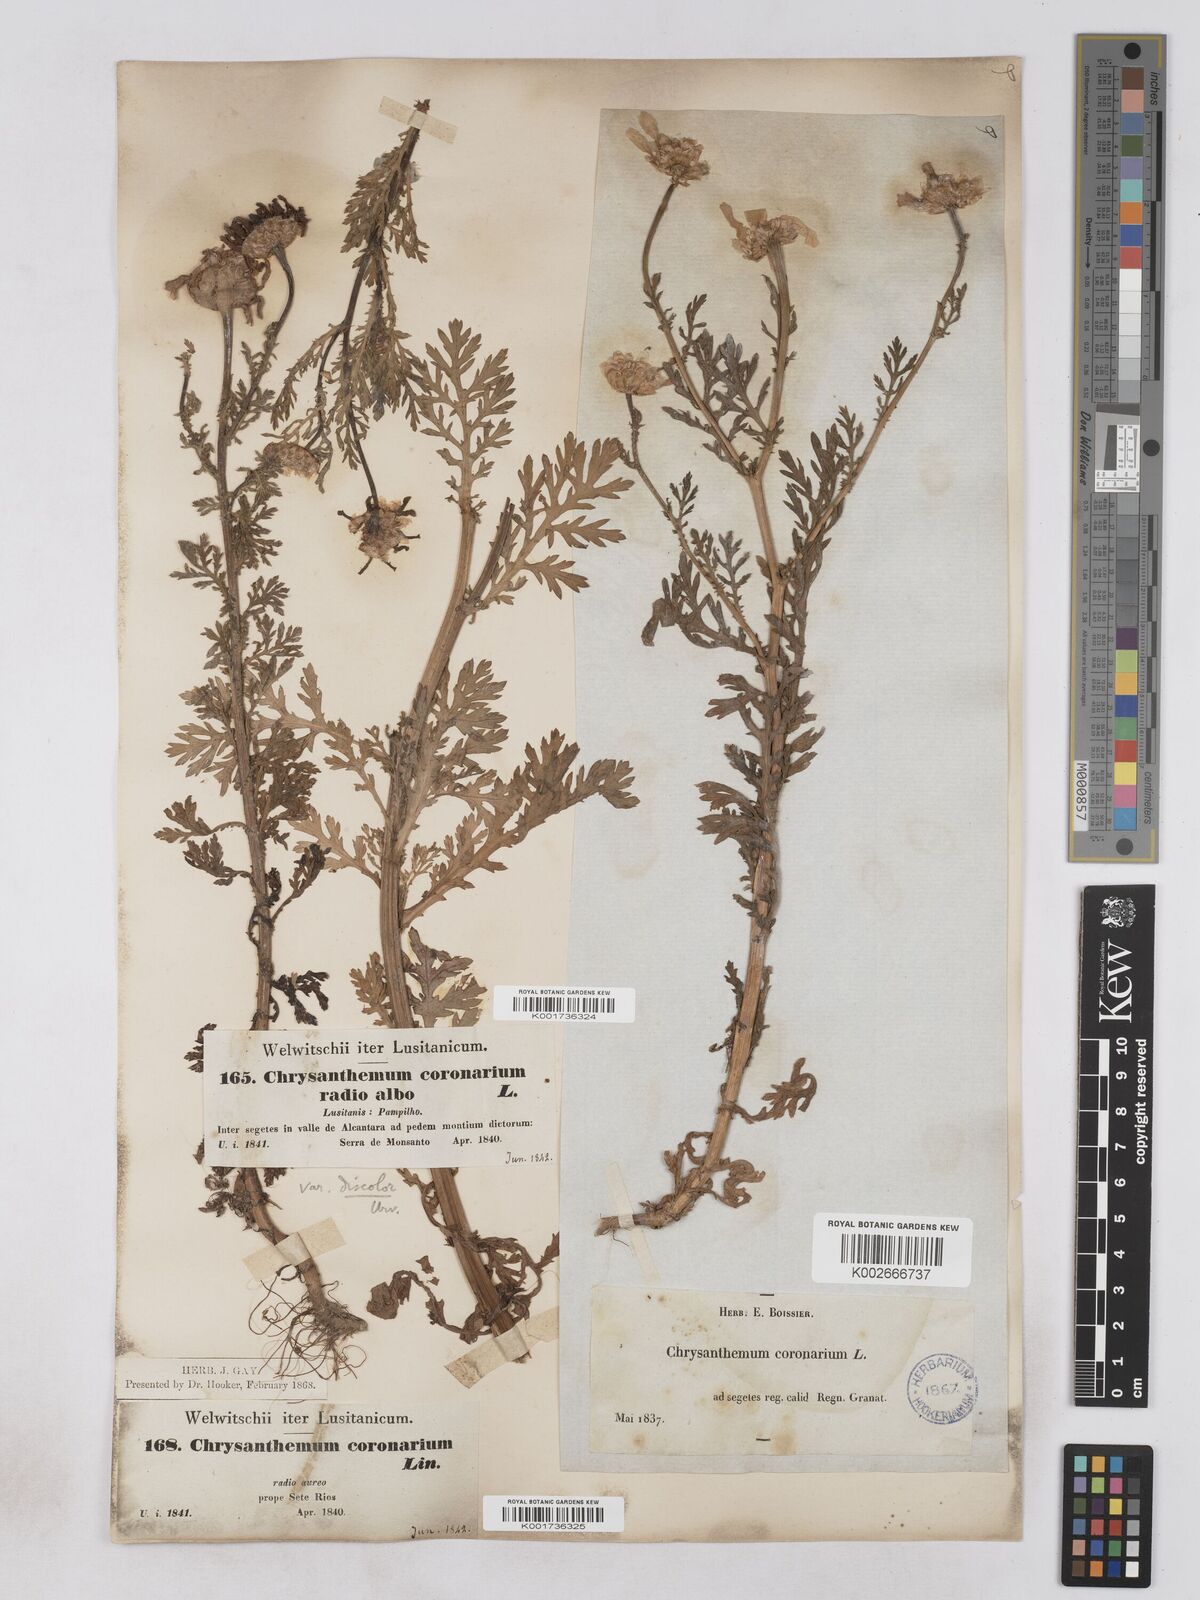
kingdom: Plantae
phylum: Tracheophyta
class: Magnoliopsida
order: Asterales
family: Asteraceae
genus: Glebionis
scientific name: Glebionis
